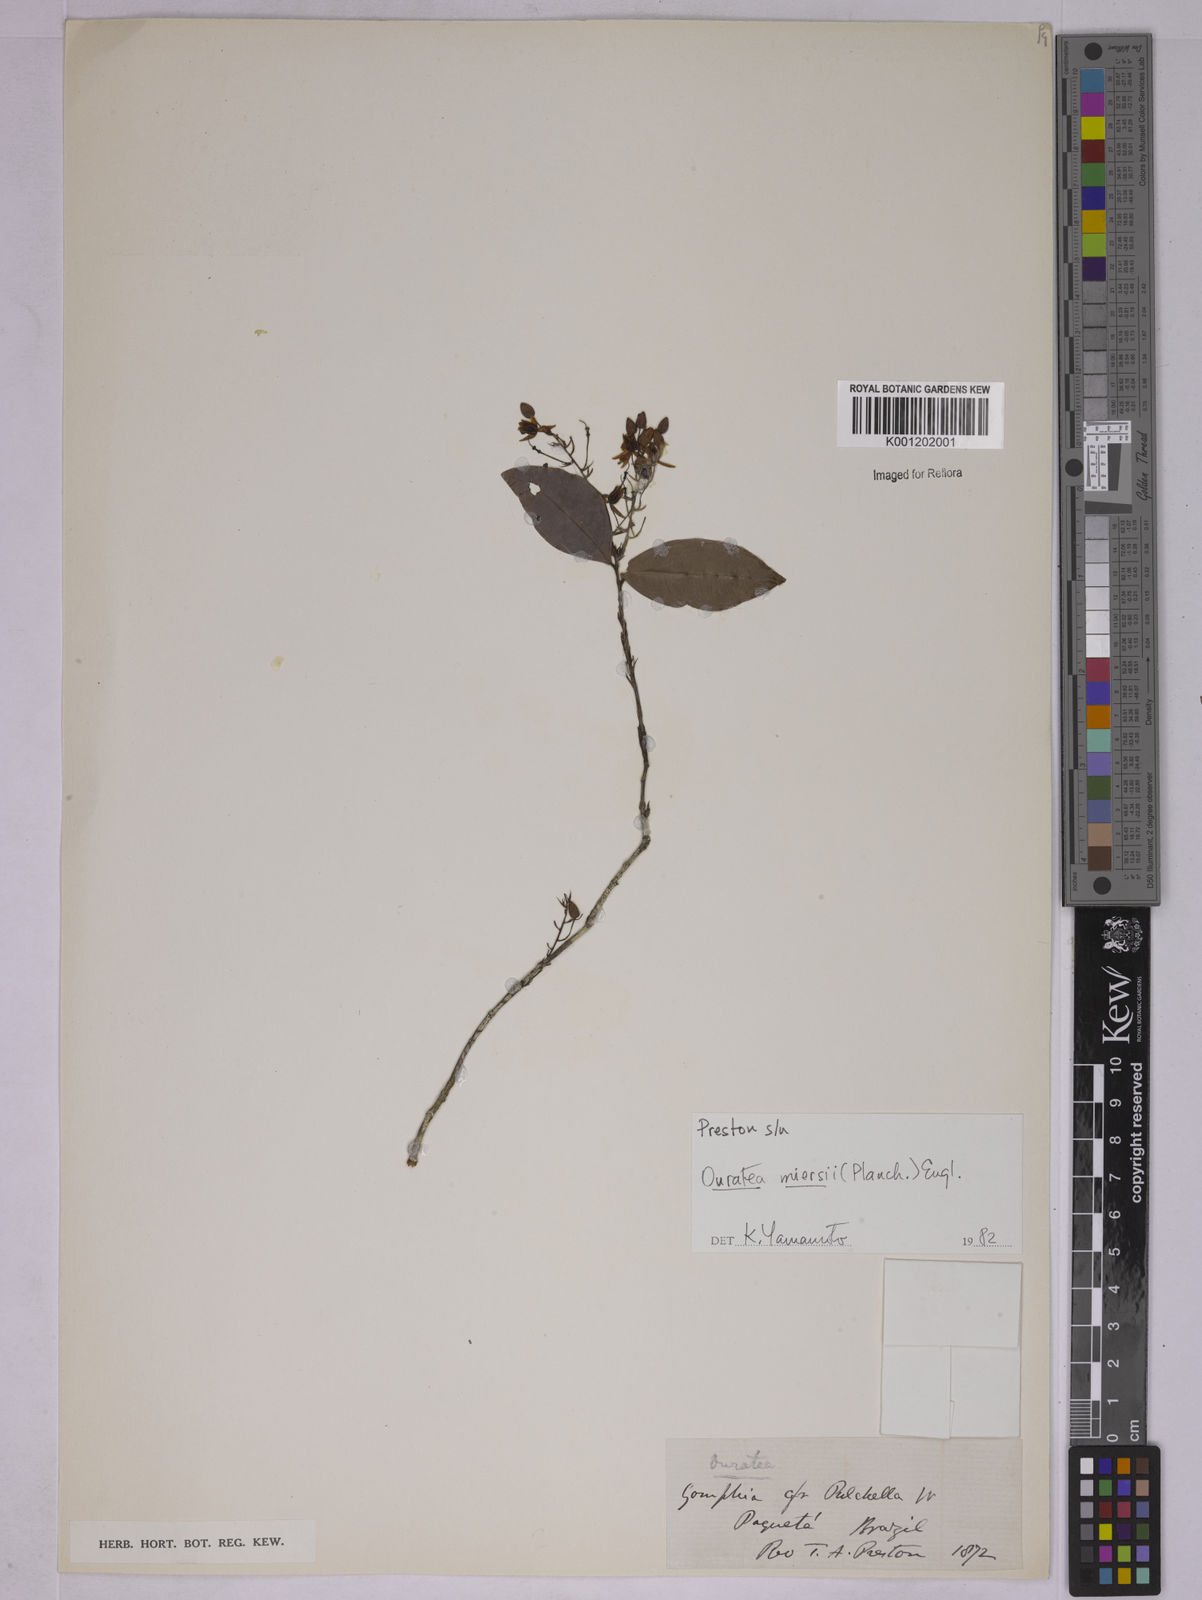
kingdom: Plantae
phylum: Tracheophyta
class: Magnoliopsida
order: Malpighiales
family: Ochnaceae
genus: Ouratea
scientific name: Ouratea miersii
